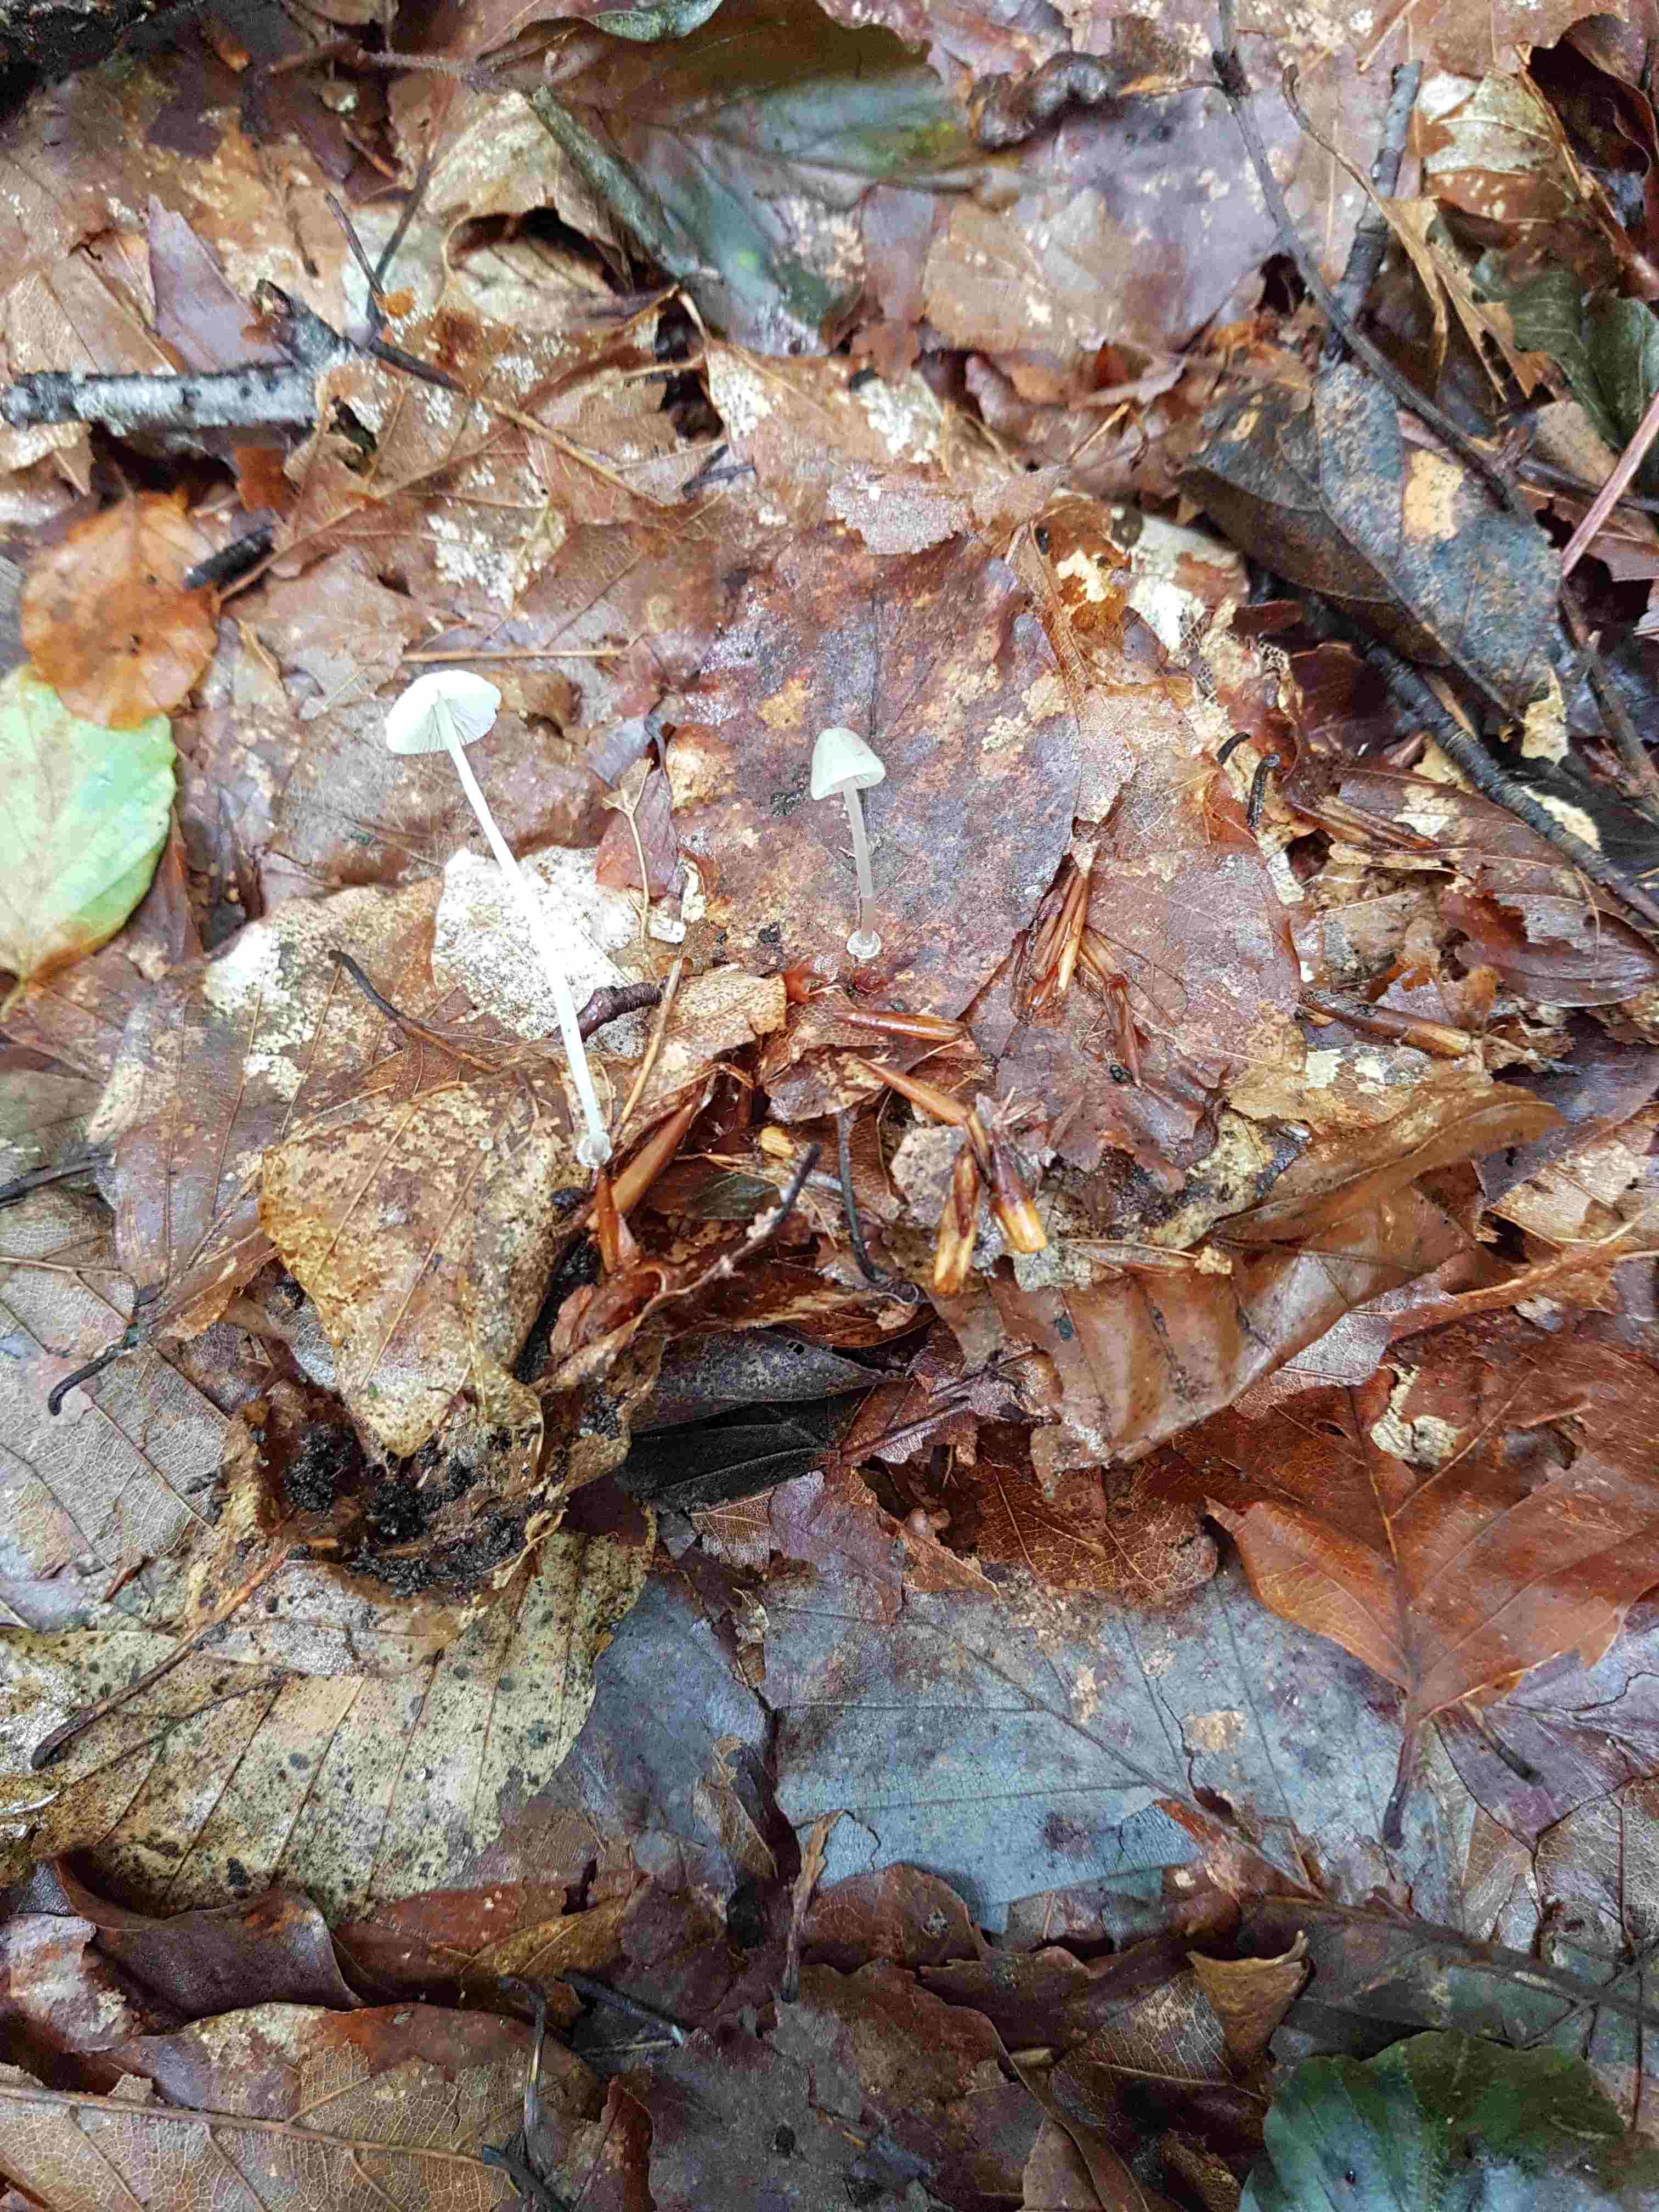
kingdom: Fungi
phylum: Basidiomycota
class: Agaricomycetes
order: Agaricales
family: Mycenaceae
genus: Mycena
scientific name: Mycena stylobates
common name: fureskivet huesvamp
